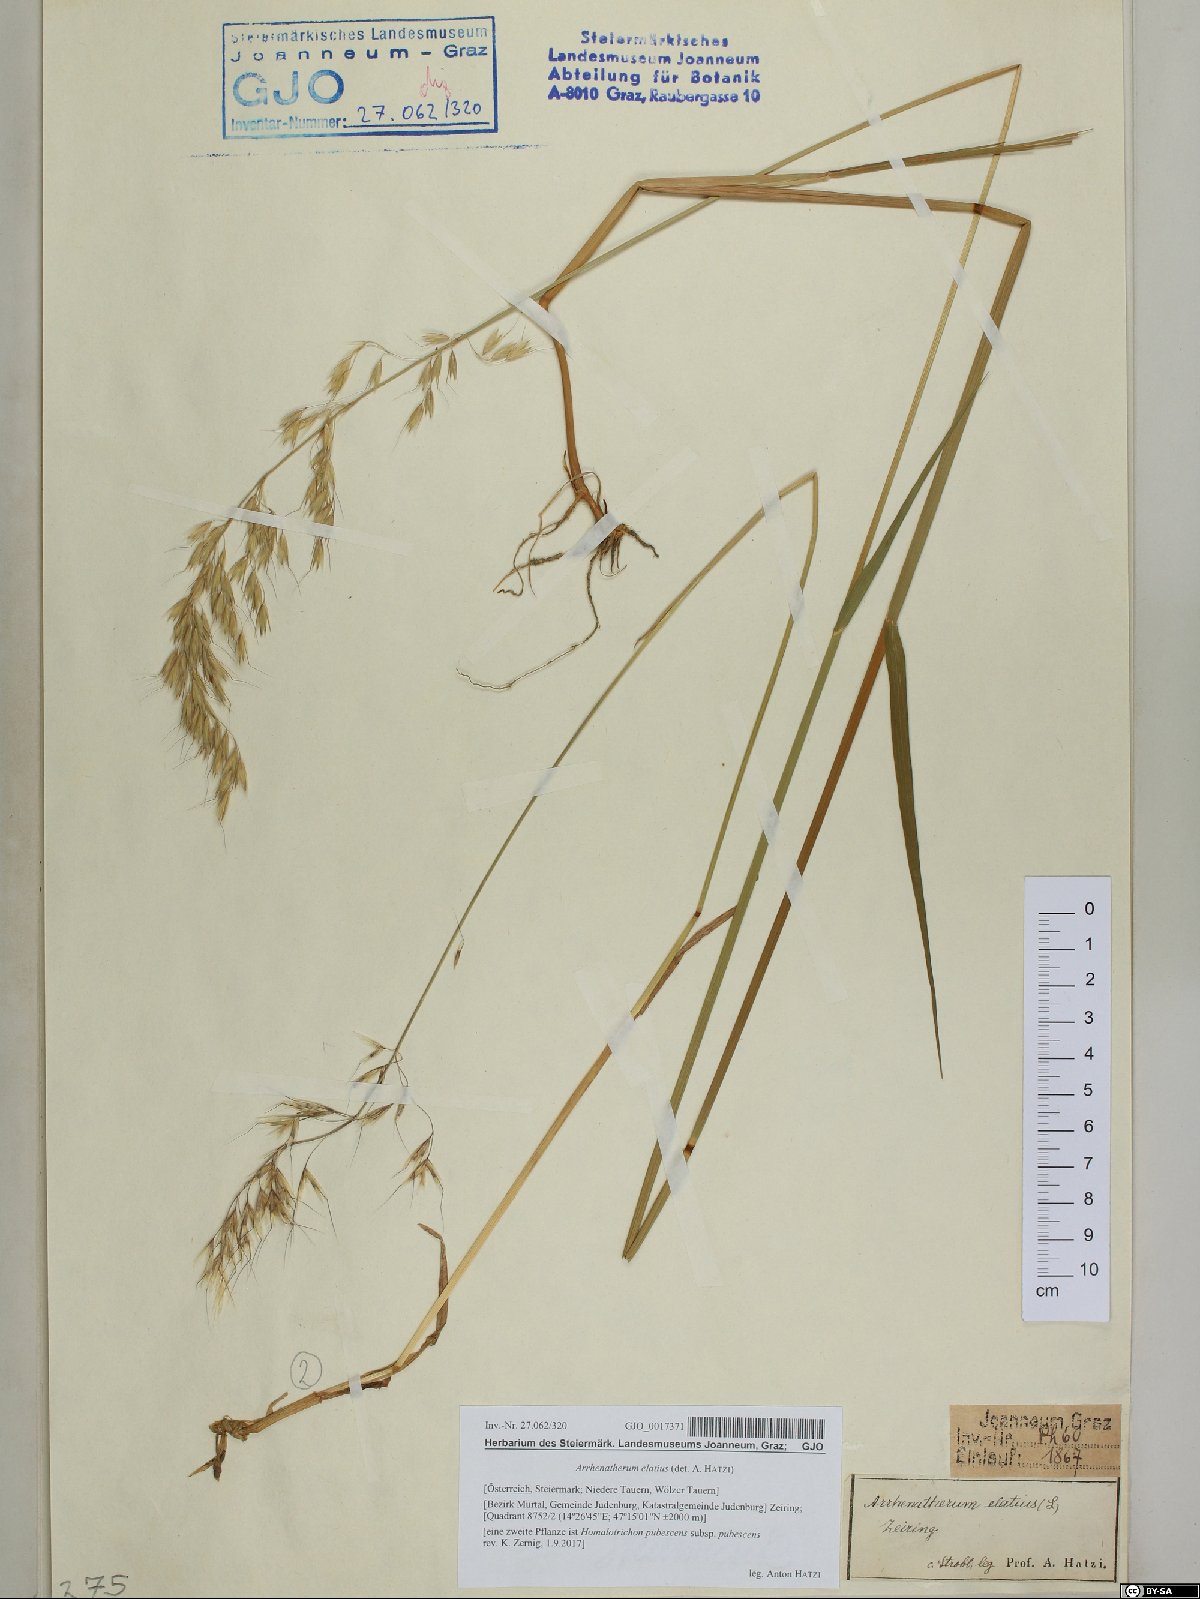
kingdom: Plantae
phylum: Tracheophyta
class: Liliopsida
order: Poales
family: Poaceae
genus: Arrhenatherum
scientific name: Arrhenatherum elatius
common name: Tall oatgrass
